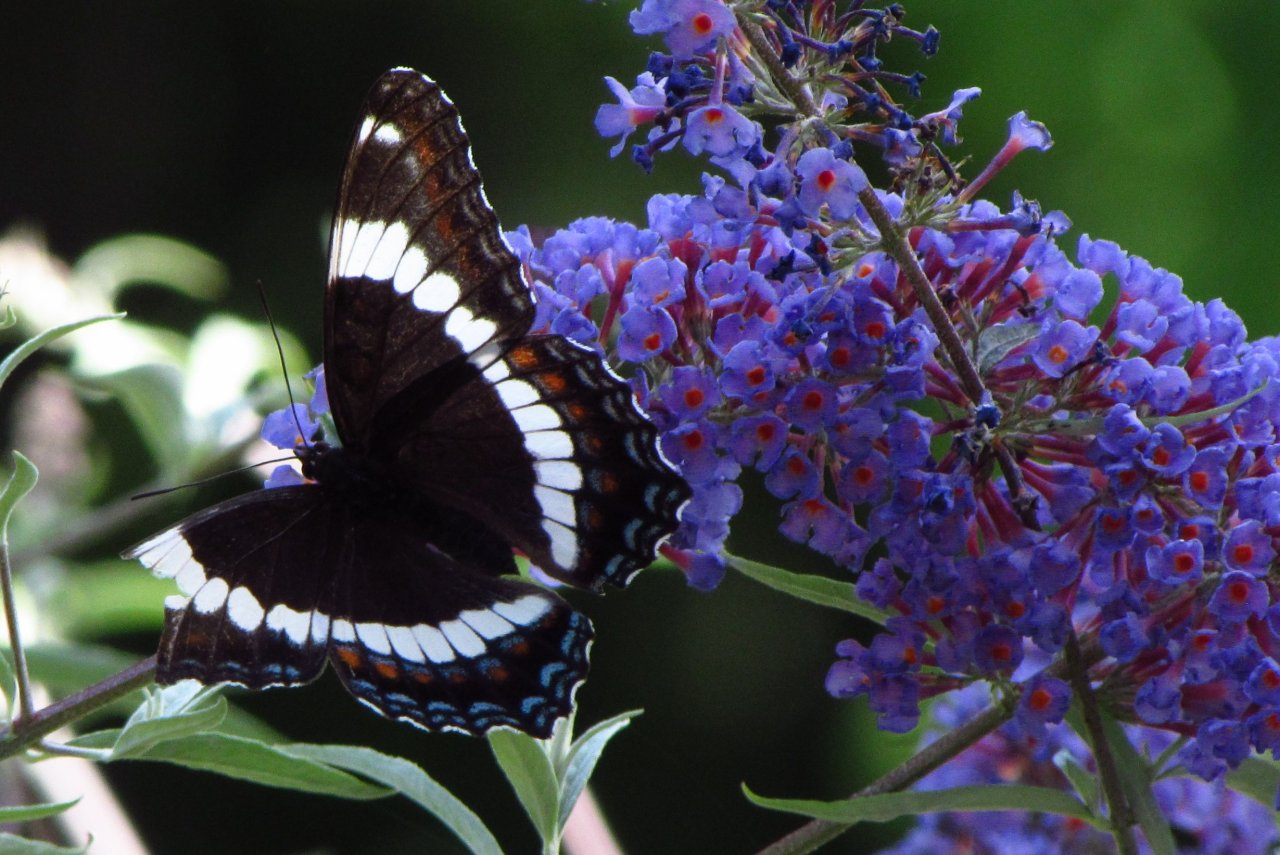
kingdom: Animalia
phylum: Arthropoda
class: Insecta
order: Lepidoptera
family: Nymphalidae
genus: Limenitis
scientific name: Limenitis arthemis
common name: Red-spotted Admiral
